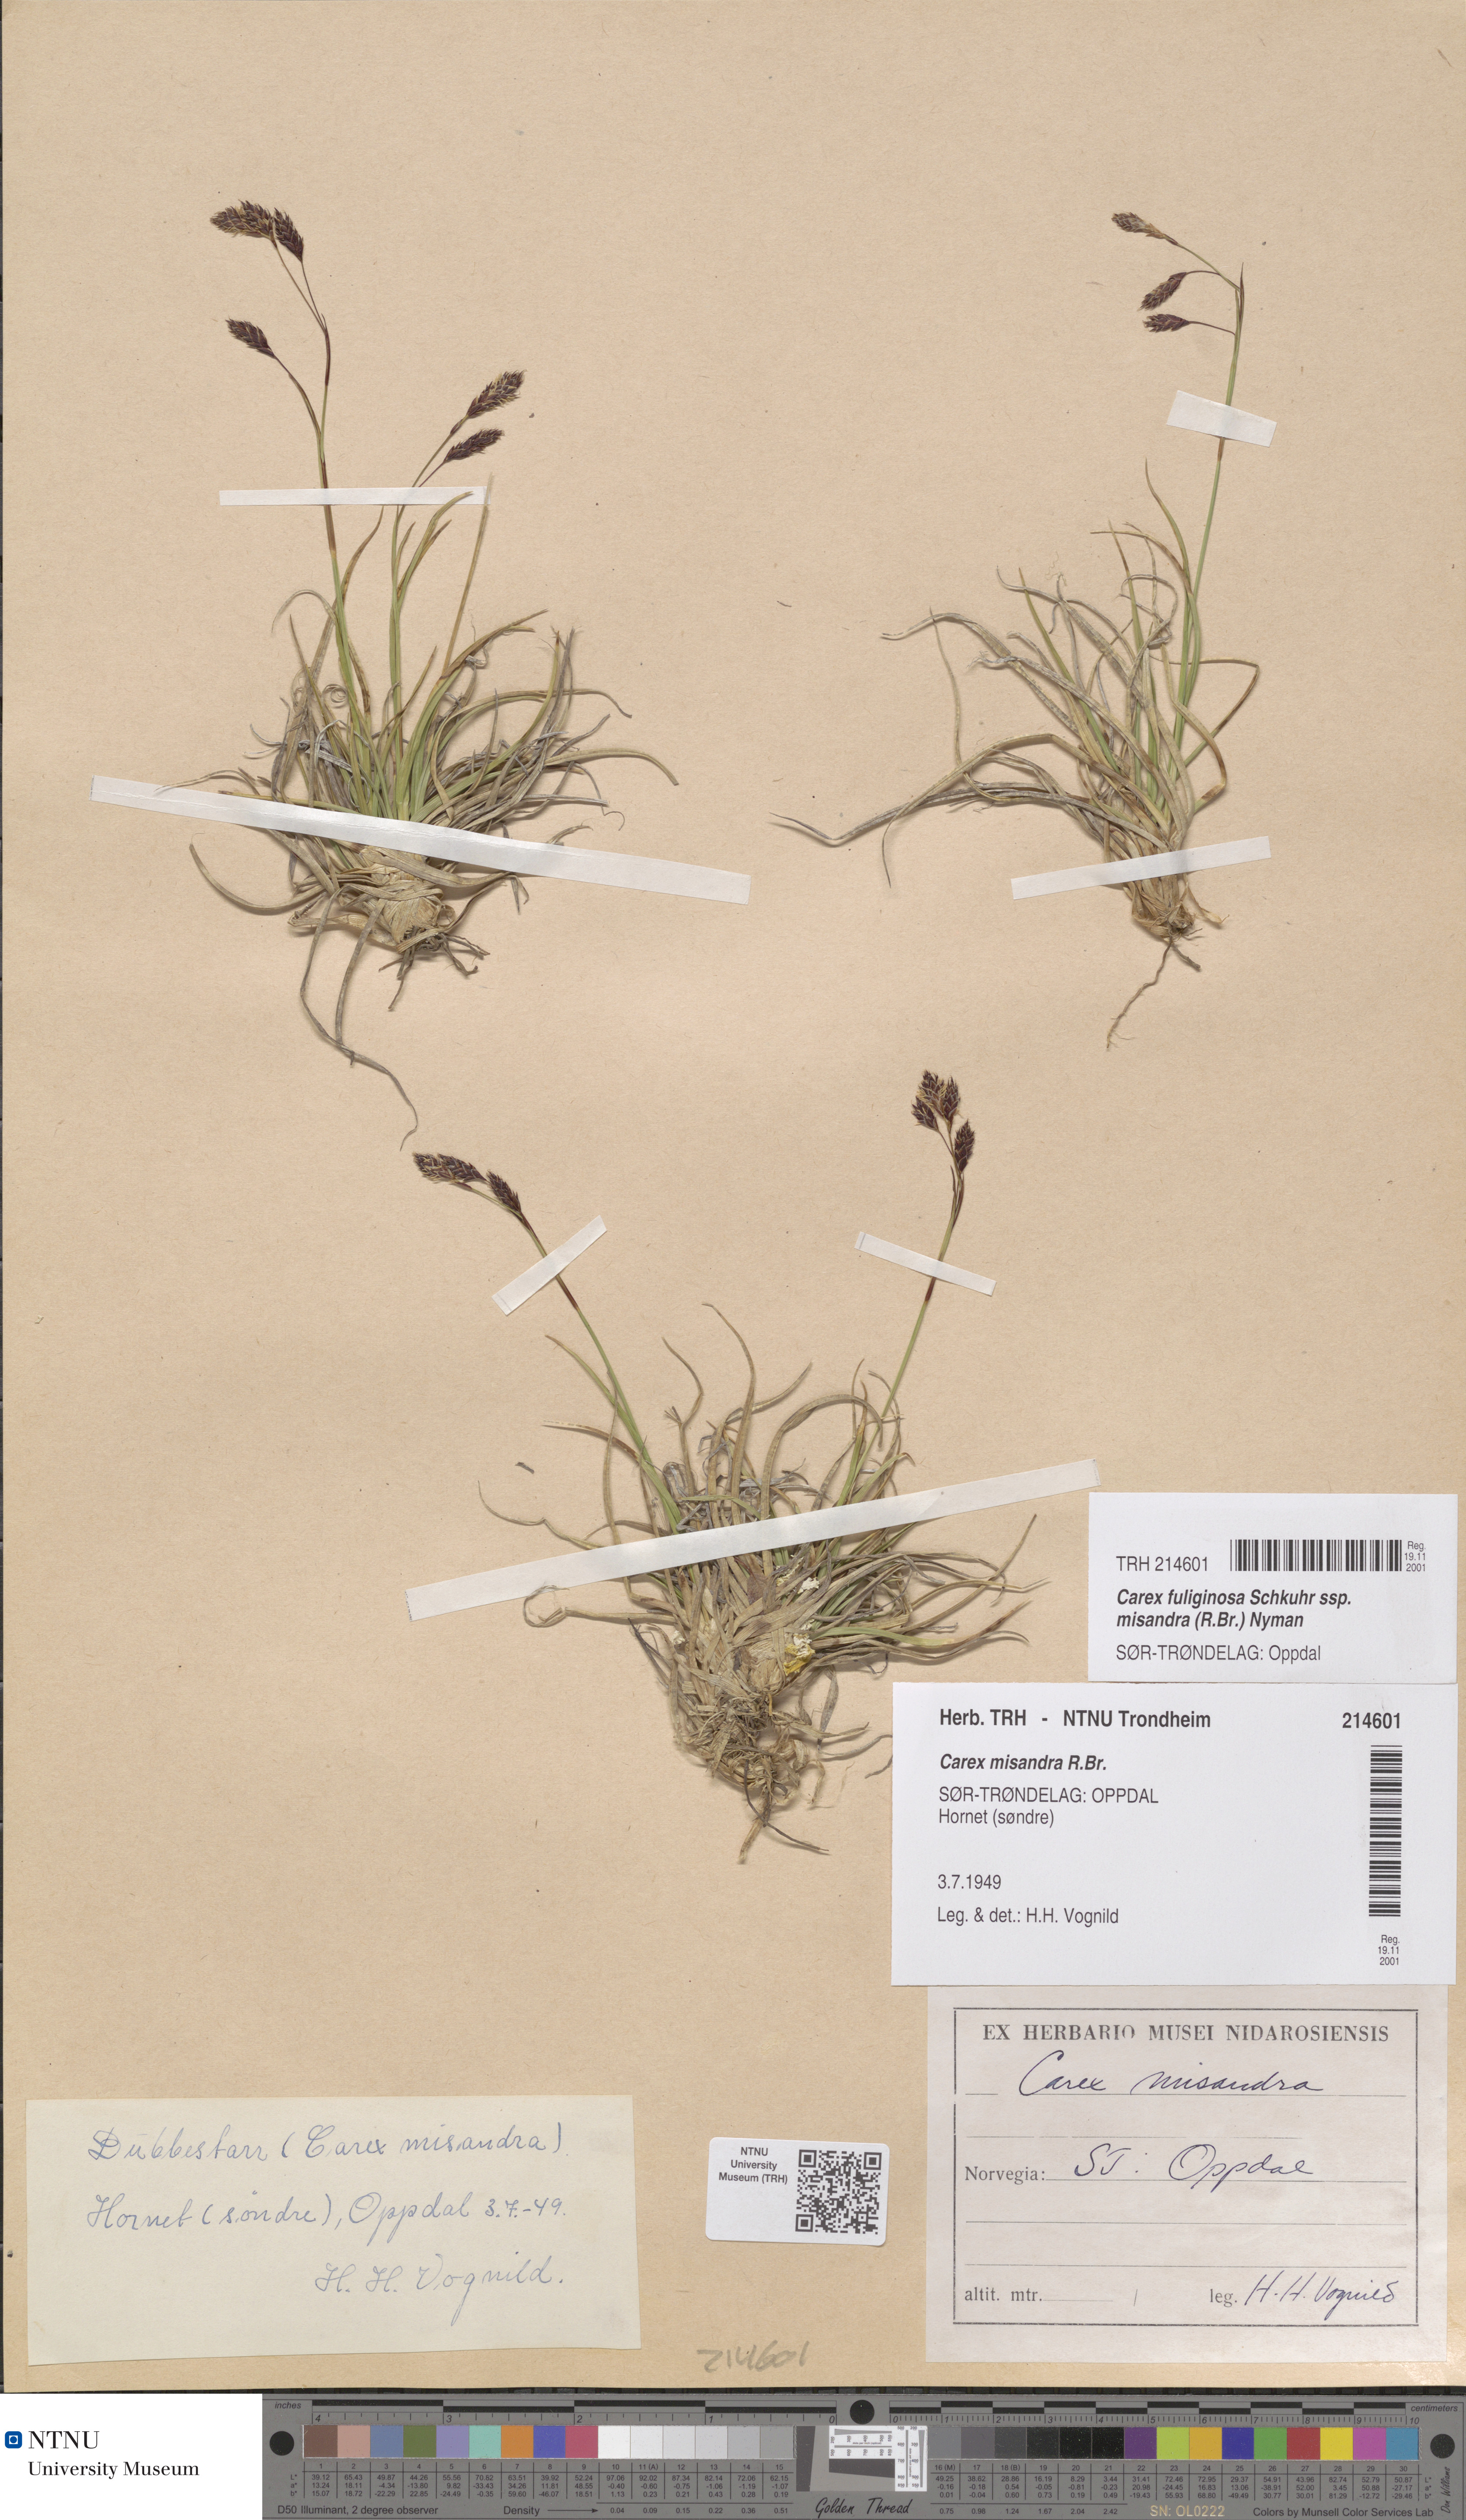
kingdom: Plantae
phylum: Tracheophyta
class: Liliopsida
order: Poales
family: Cyperaceae
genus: Carex
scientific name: Carex fuliginosa
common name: Few-flowered sedge
